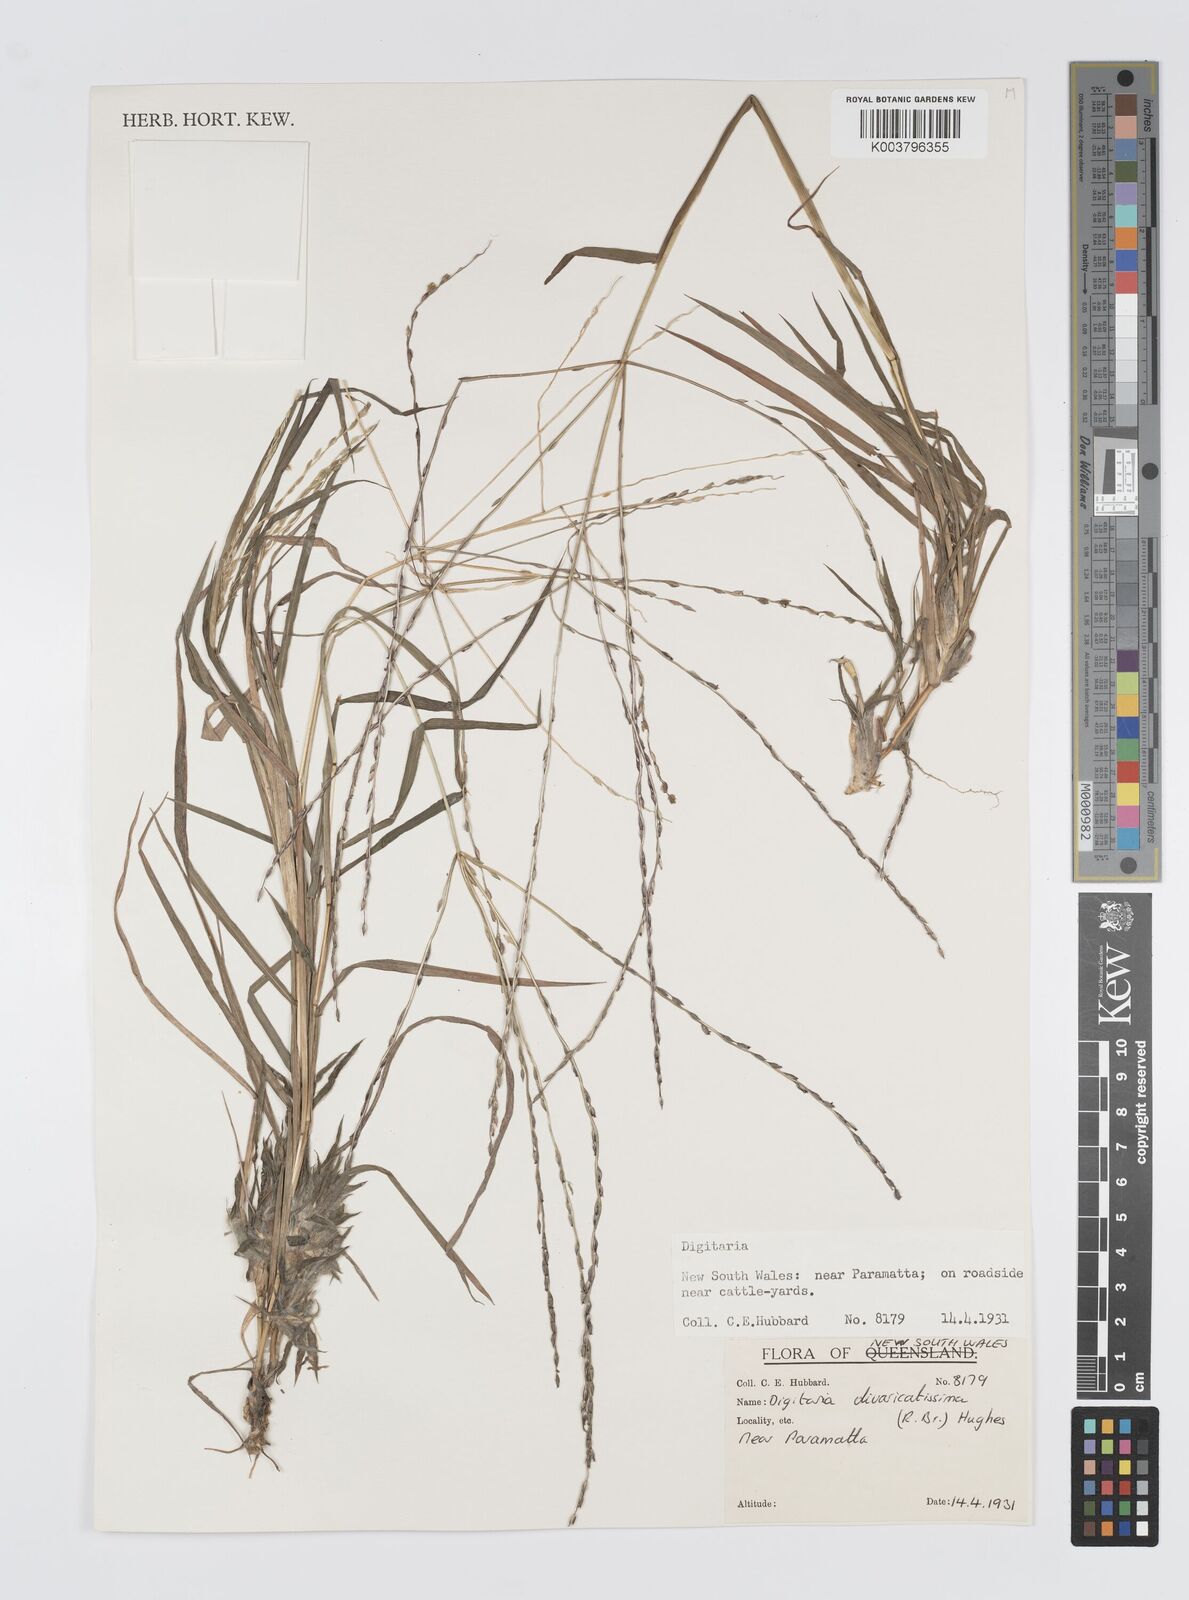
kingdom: Plantae
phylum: Tracheophyta
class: Liliopsida
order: Poales
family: Poaceae
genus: Digitaria
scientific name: Digitaria divaricatissima
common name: Crabgrass
